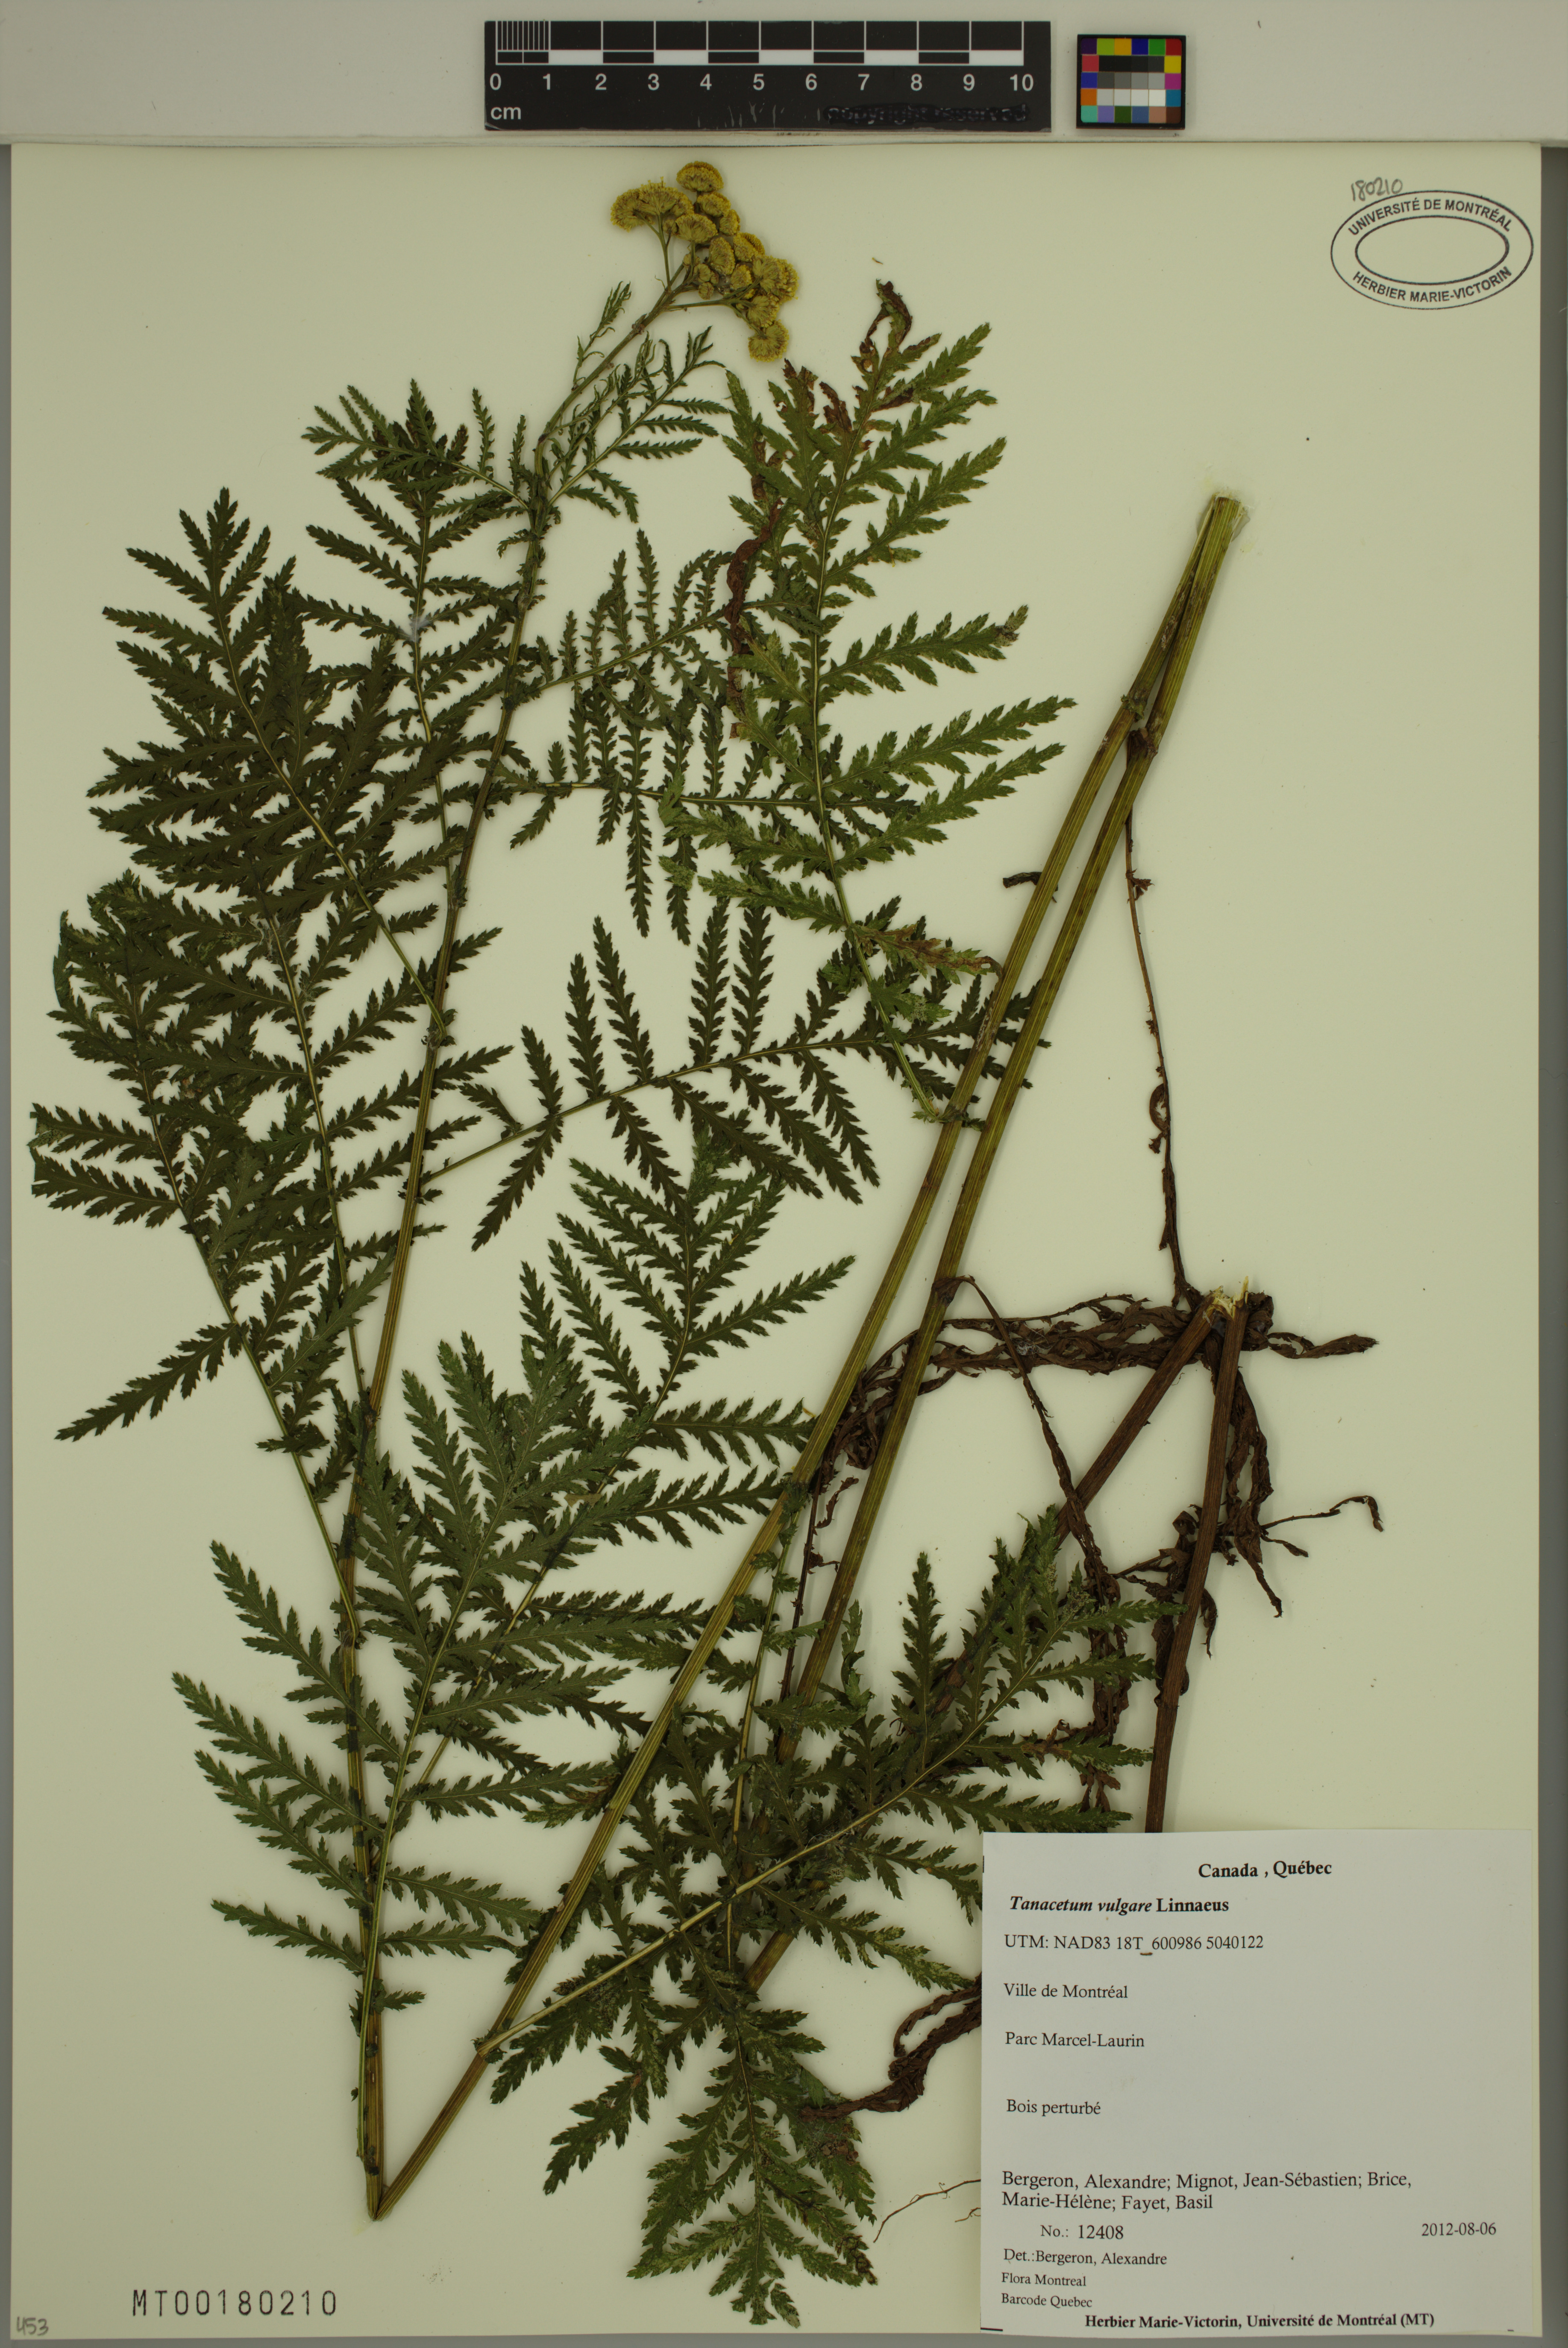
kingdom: Plantae
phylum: Tracheophyta
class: Magnoliopsida
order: Asterales
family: Asteraceae
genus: Tanacetum
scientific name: Tanacetum vulgare
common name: Common tansy
